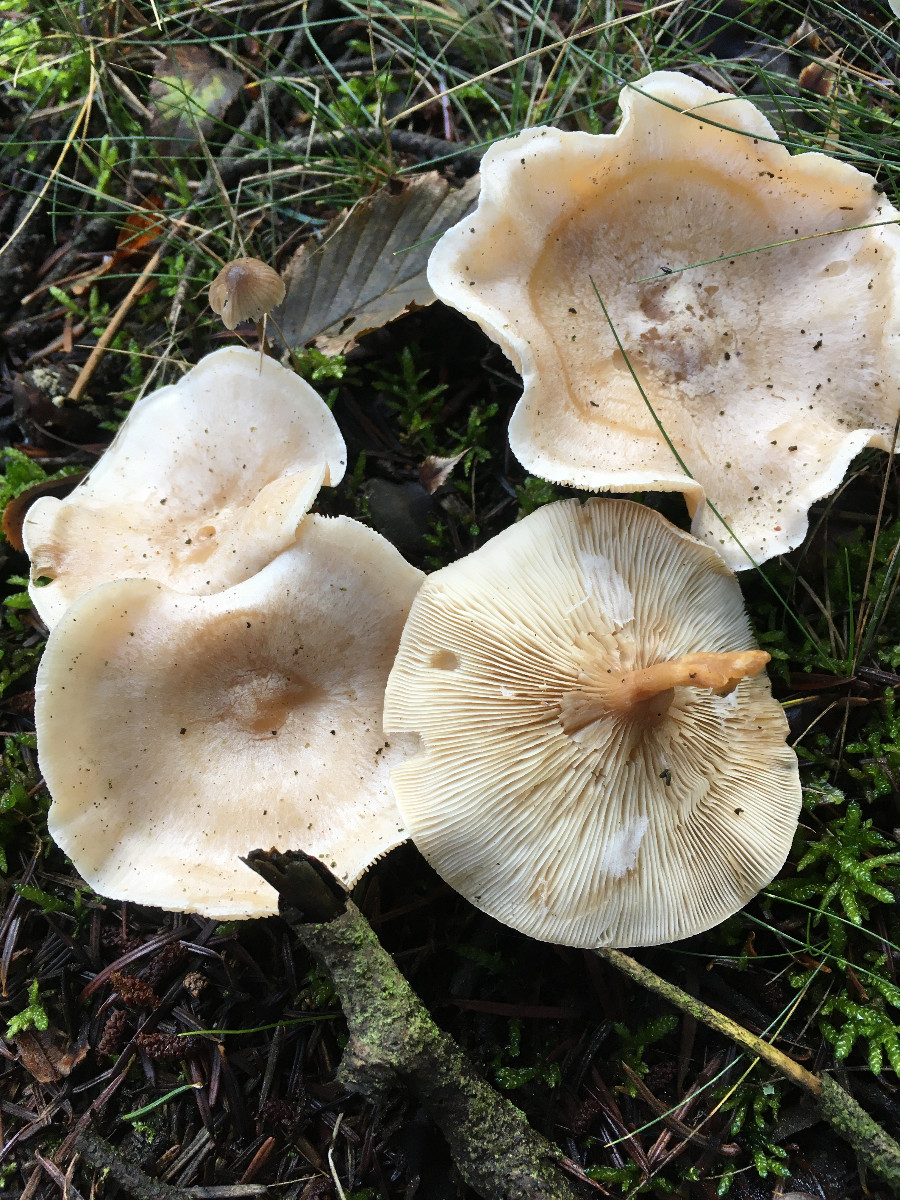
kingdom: Fungi
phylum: Basidiomycota
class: Agaricomycetes
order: Agaricales
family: Tricholomataceae
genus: Clitocybe
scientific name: Clitocybe phyllophila
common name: løv-tragthat
